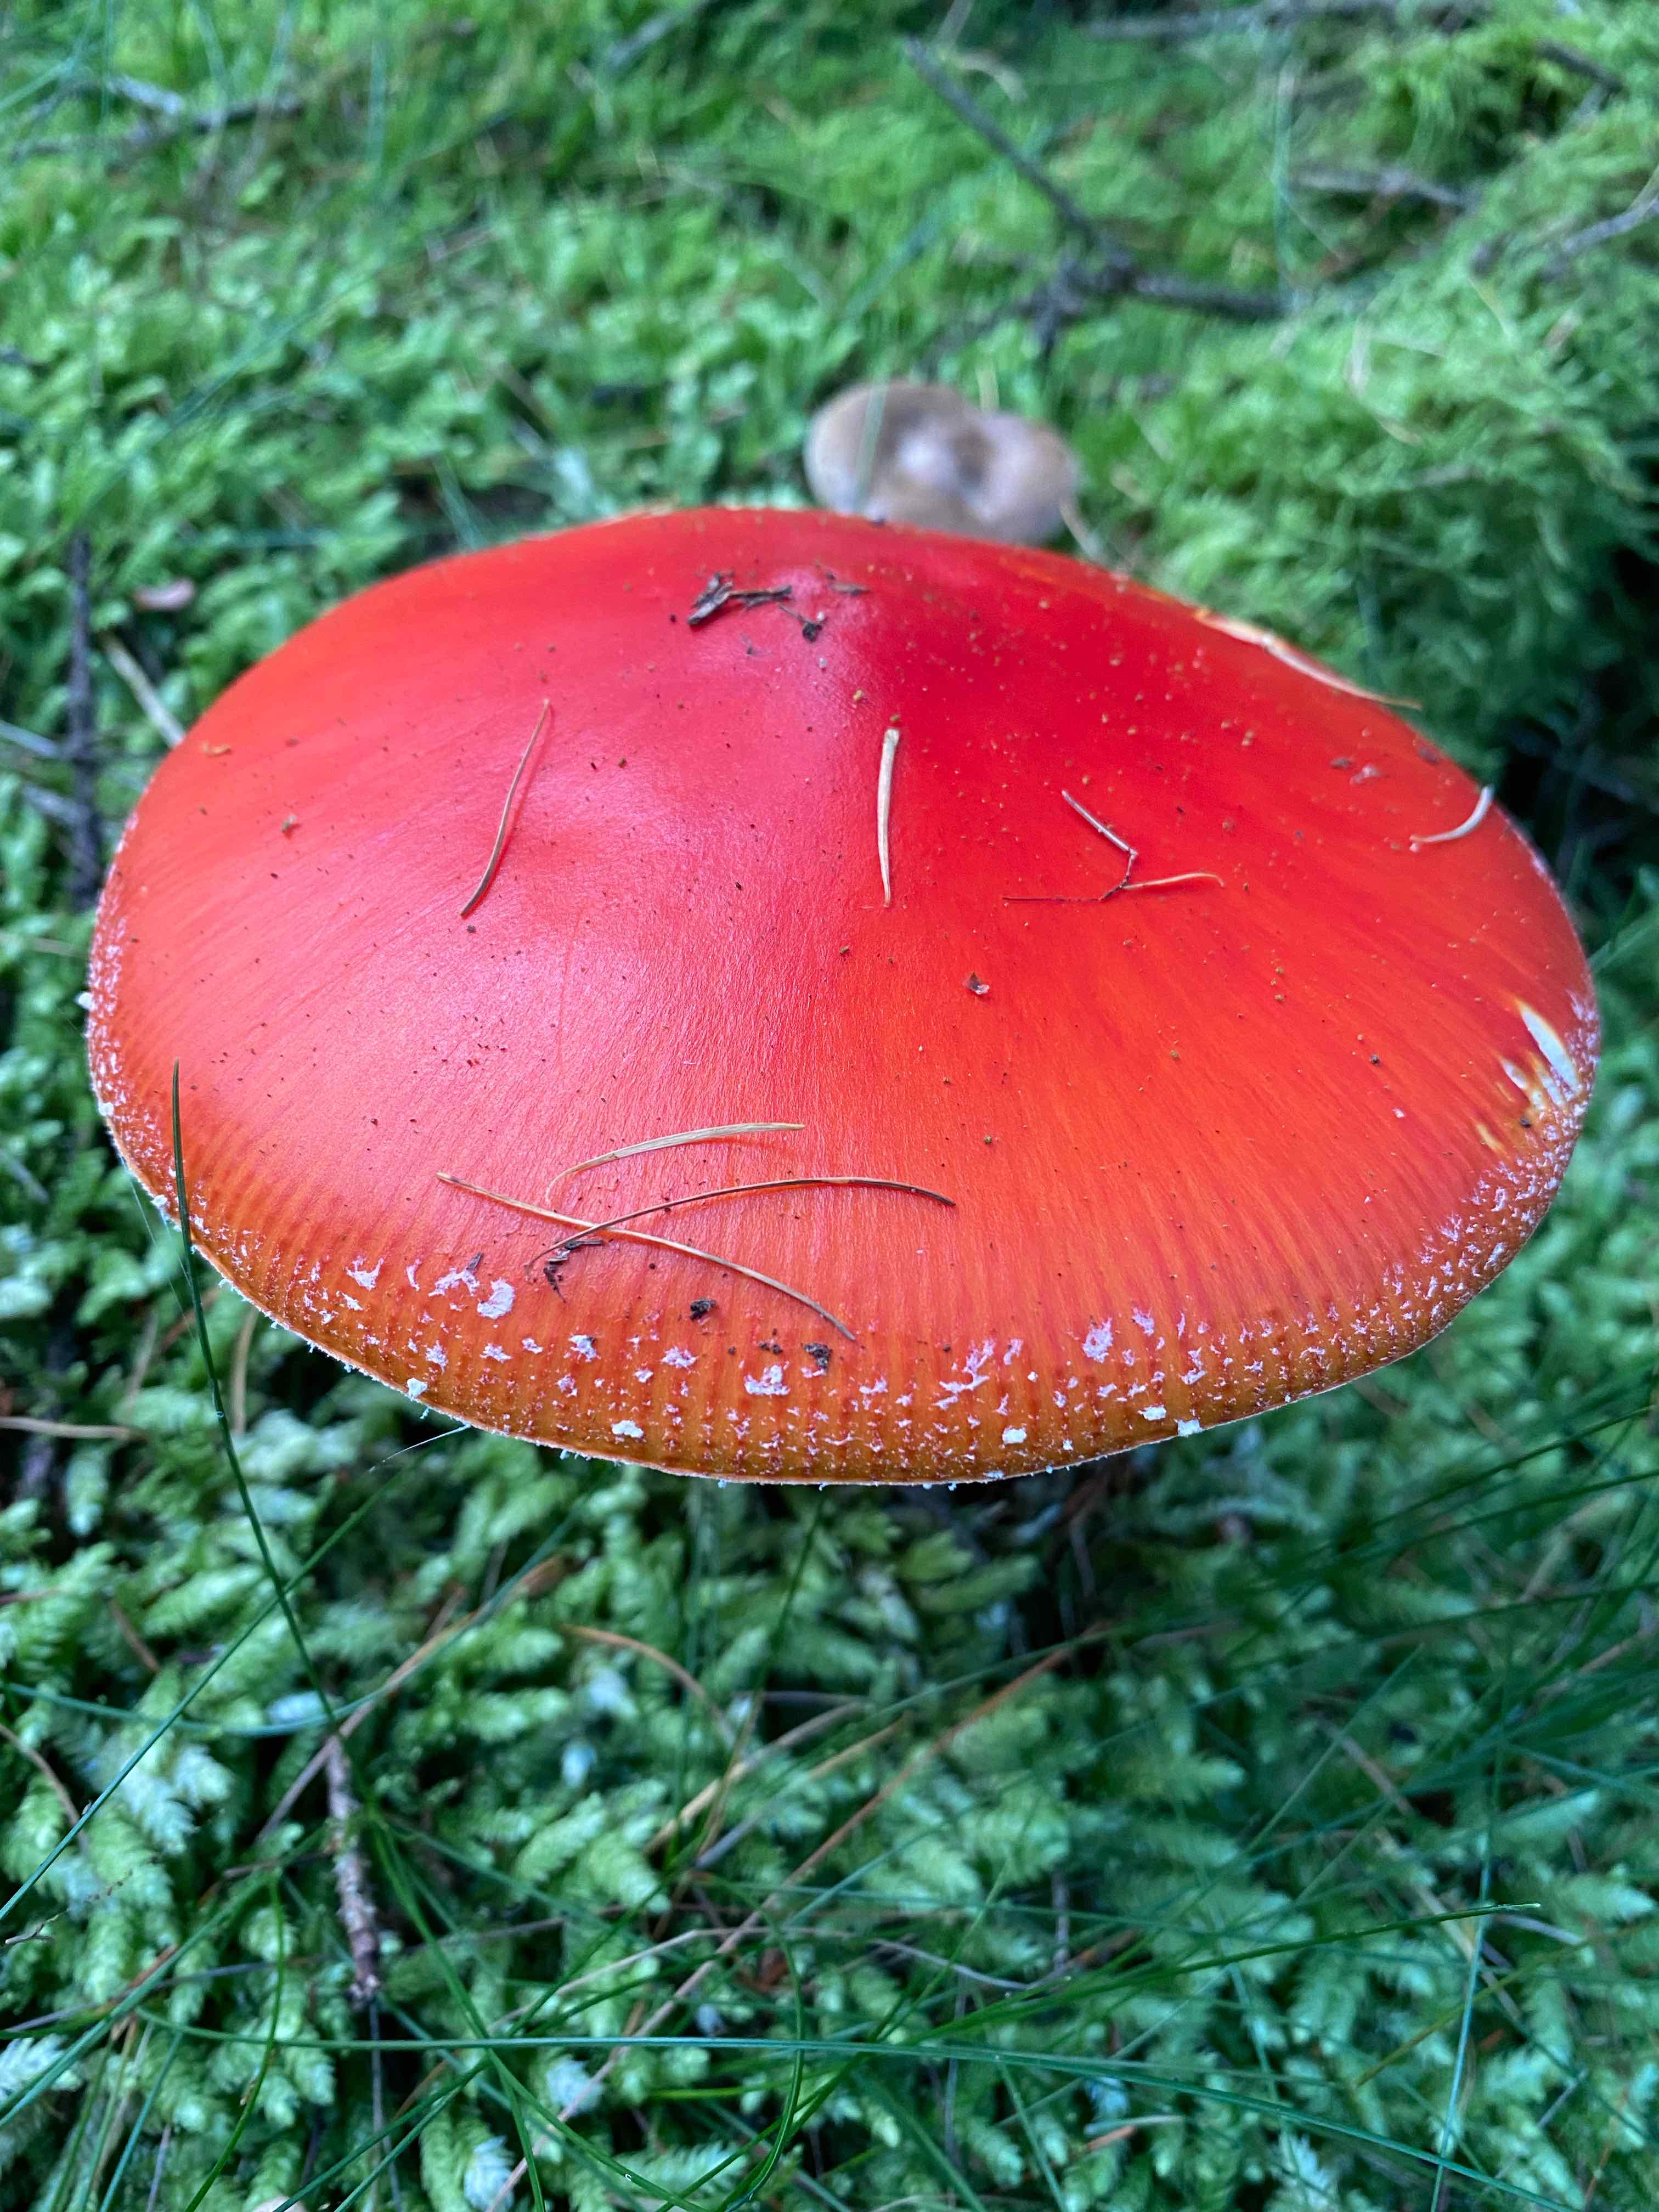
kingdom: Fungi
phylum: Basidiomycota
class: Agaricomycetes
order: Agaricales
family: Amanitaceae
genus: Amanita
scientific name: Amanita muscaria
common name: rød fluesvamp
